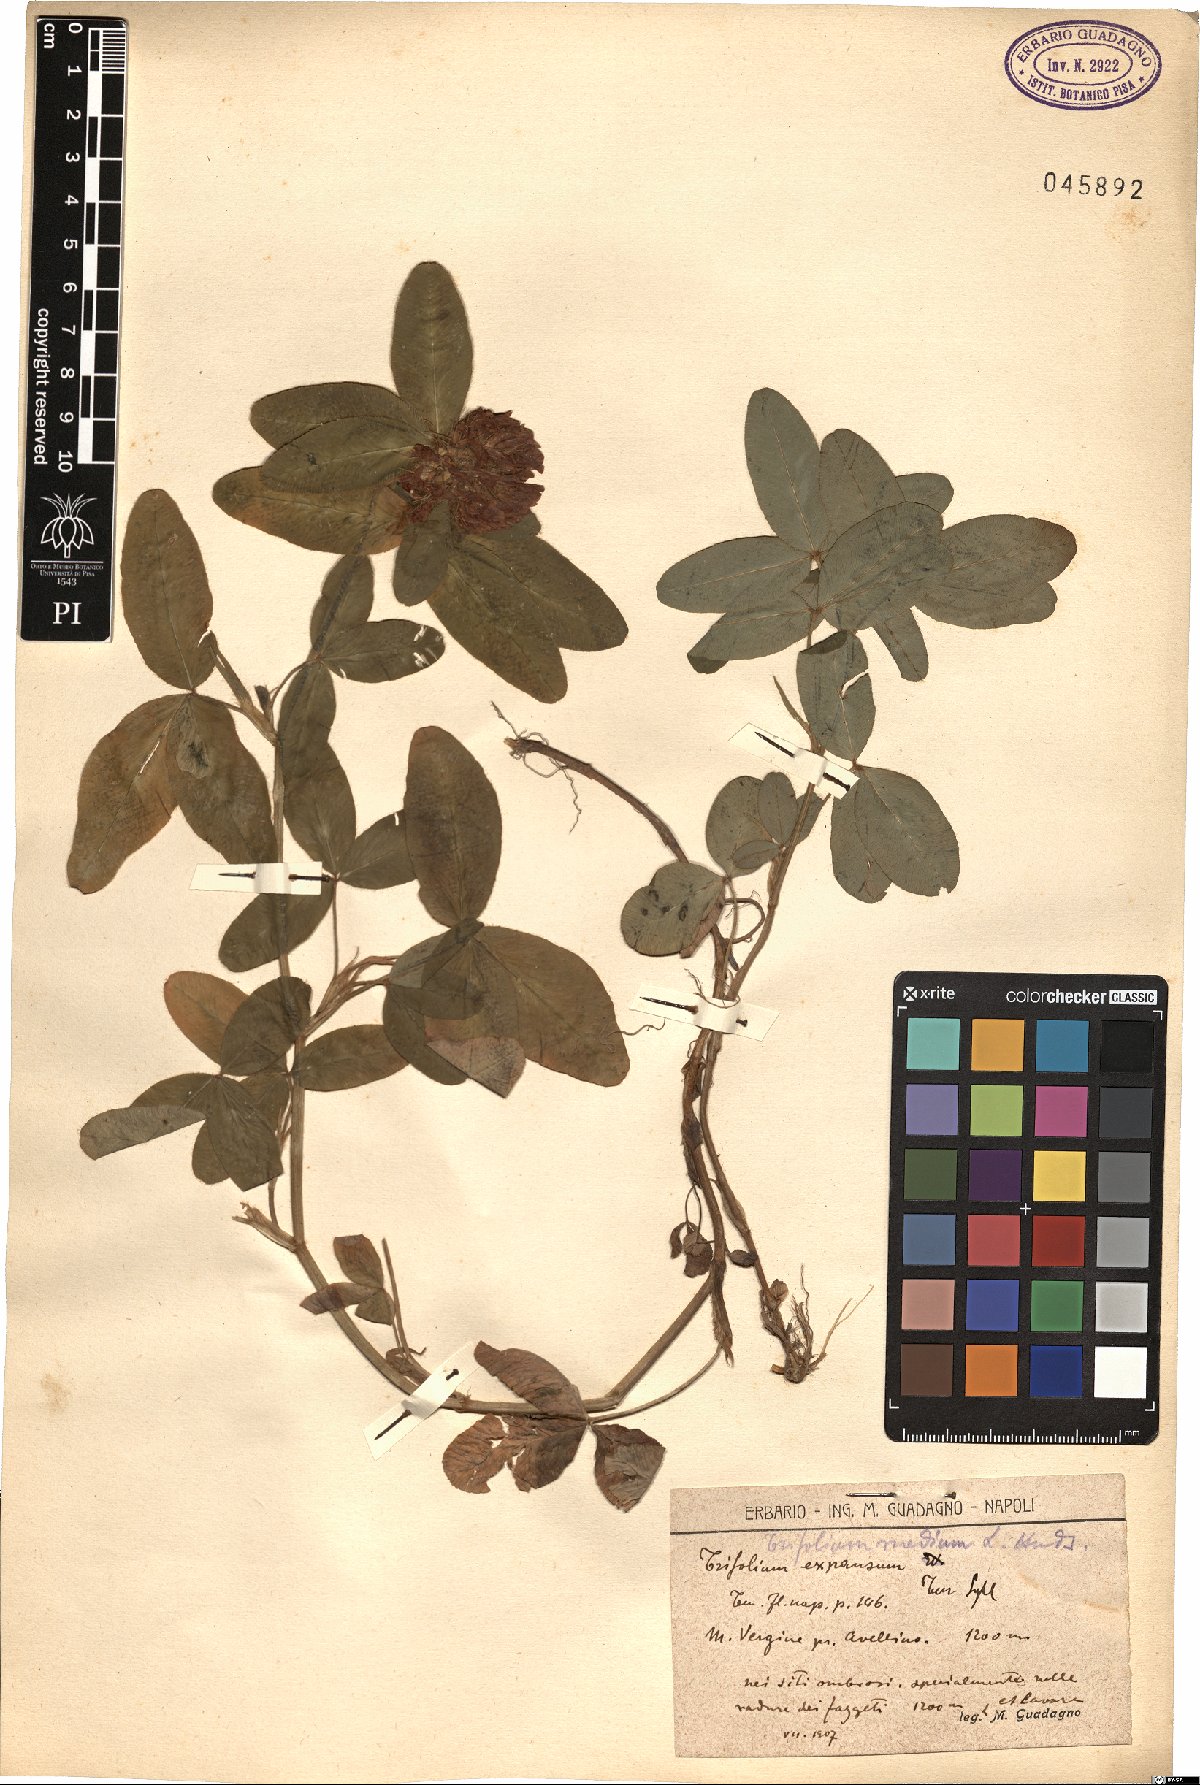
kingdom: Plantae
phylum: Tracheophyta
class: Magnoliopsida
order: Fabales
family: Fabaceae
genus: Trifolium
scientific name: Trifolium medium
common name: Zigzag clover
